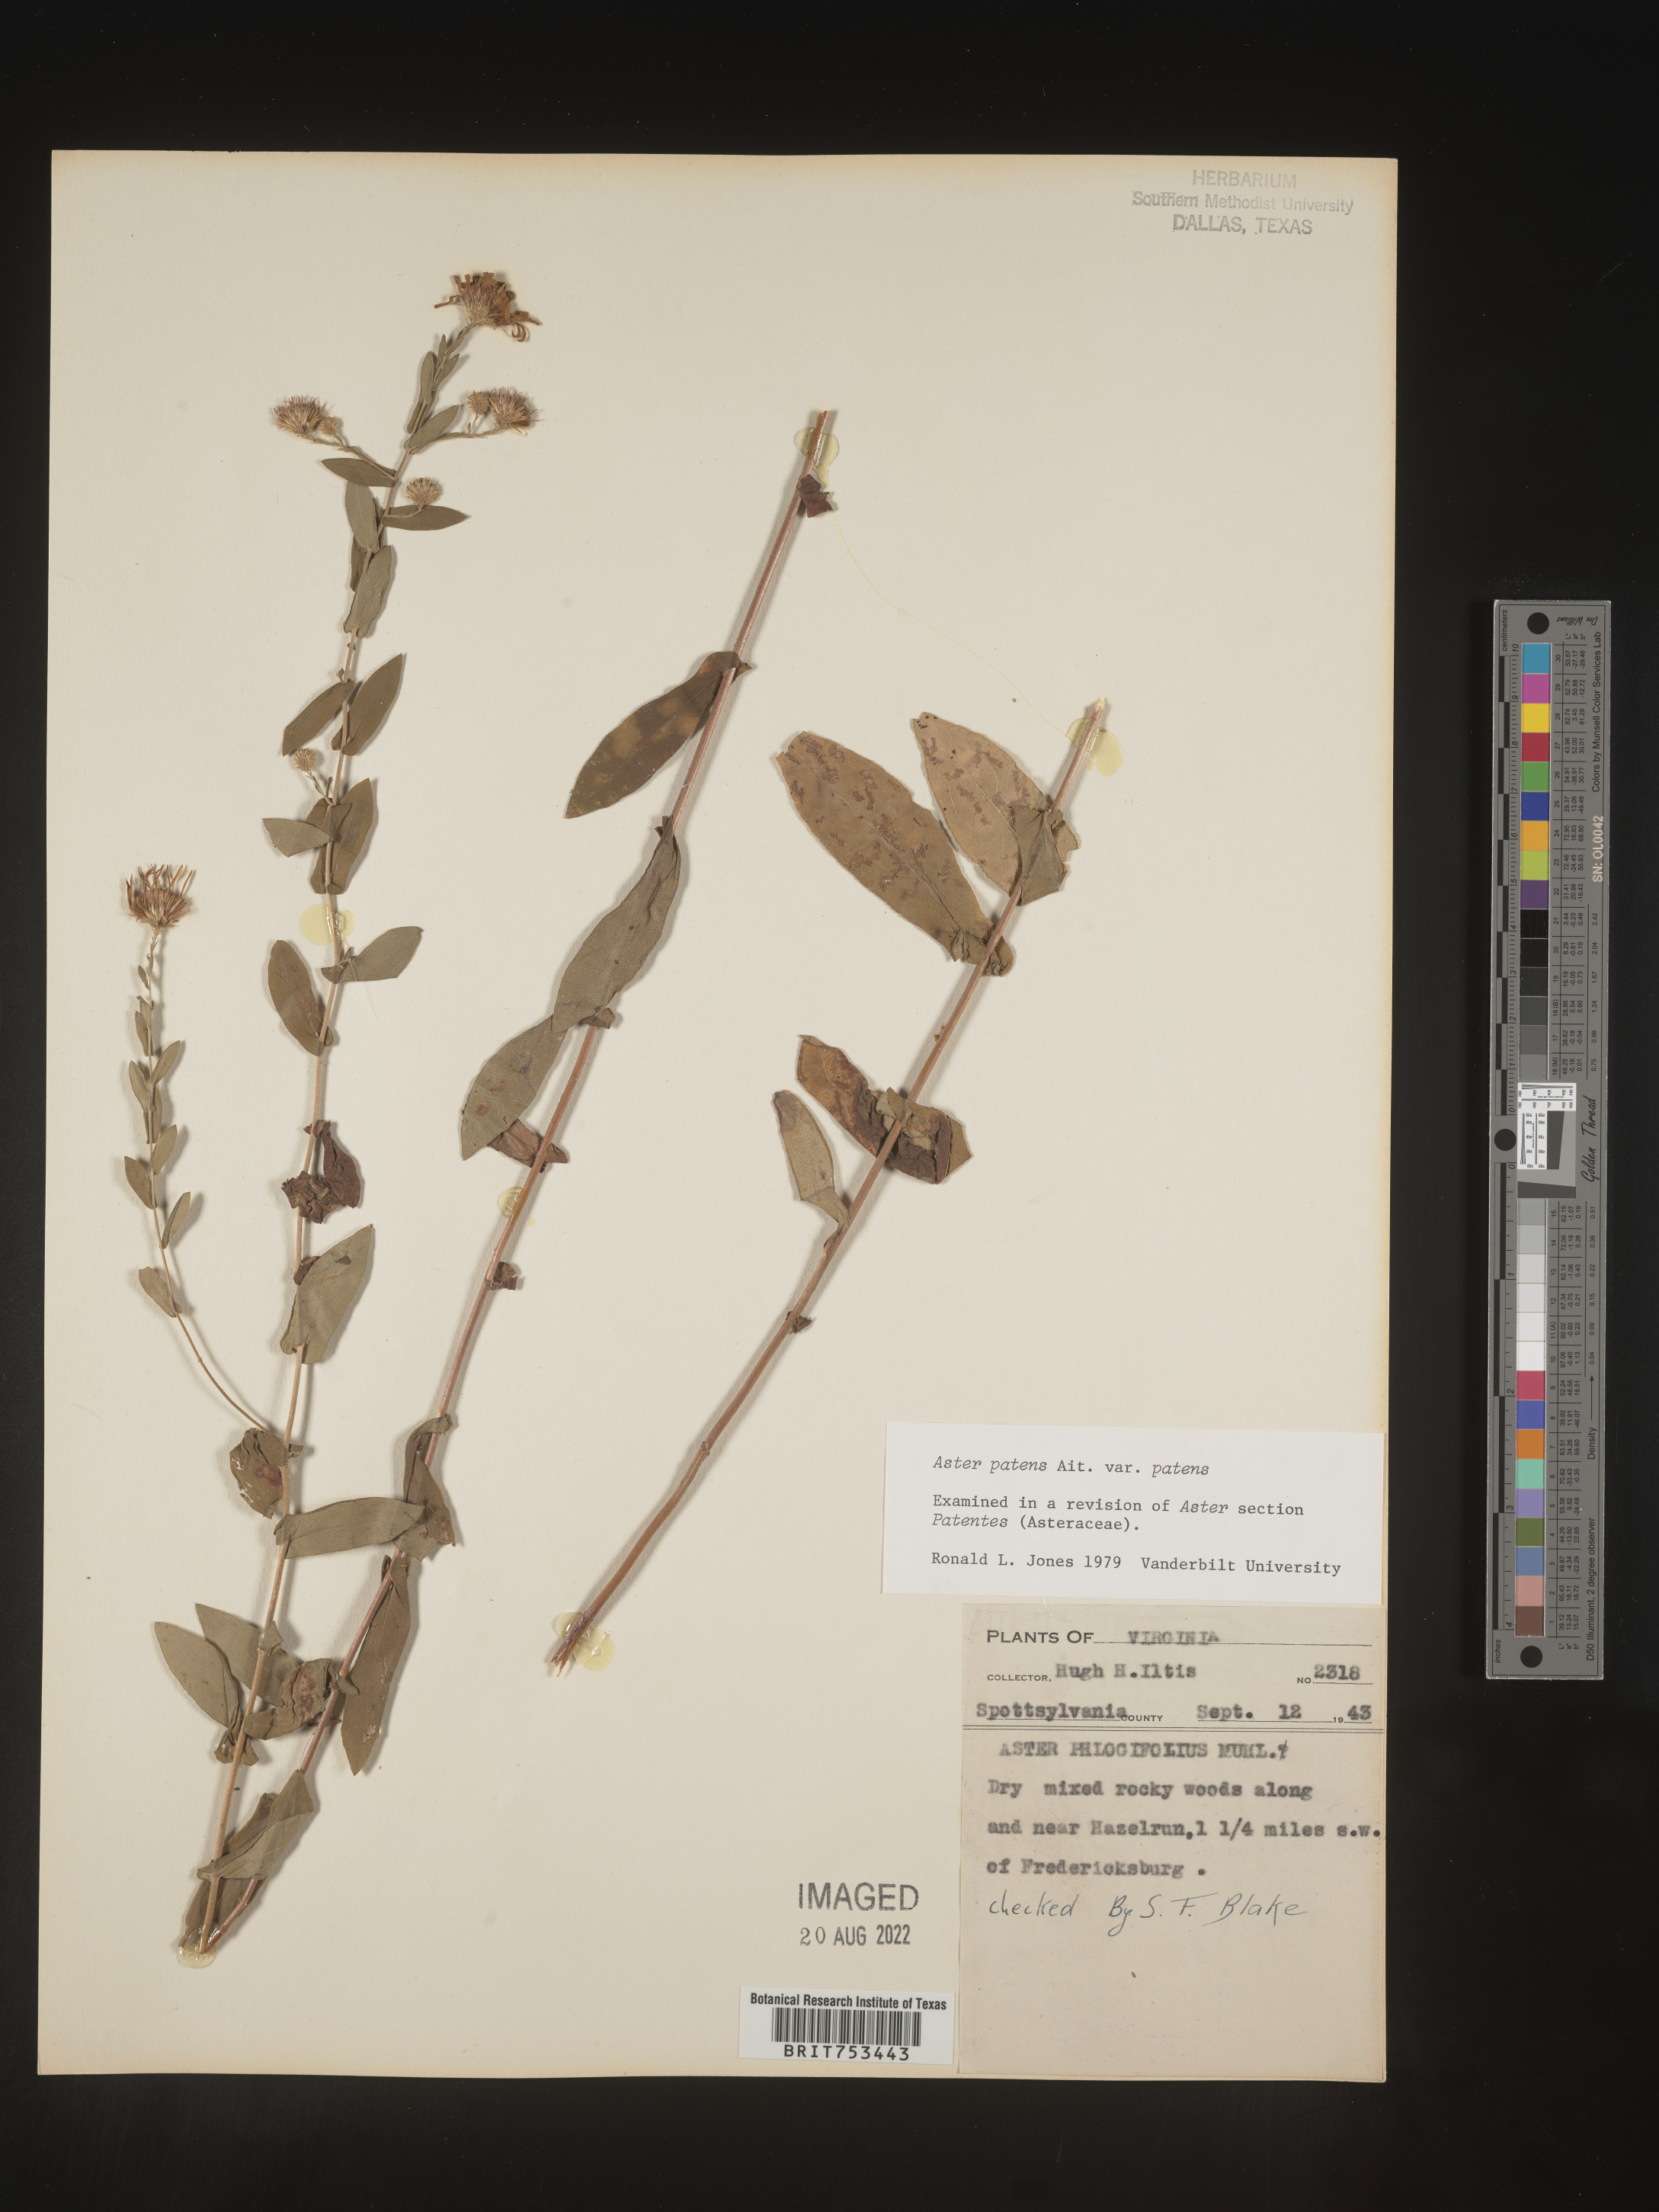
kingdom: Plantae
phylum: Tracheophyta
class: Magnoliopsida
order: Asterales
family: Asteraceae
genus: Symphyotrichum
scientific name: Symphyotrichum patens
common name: Late purple aster
